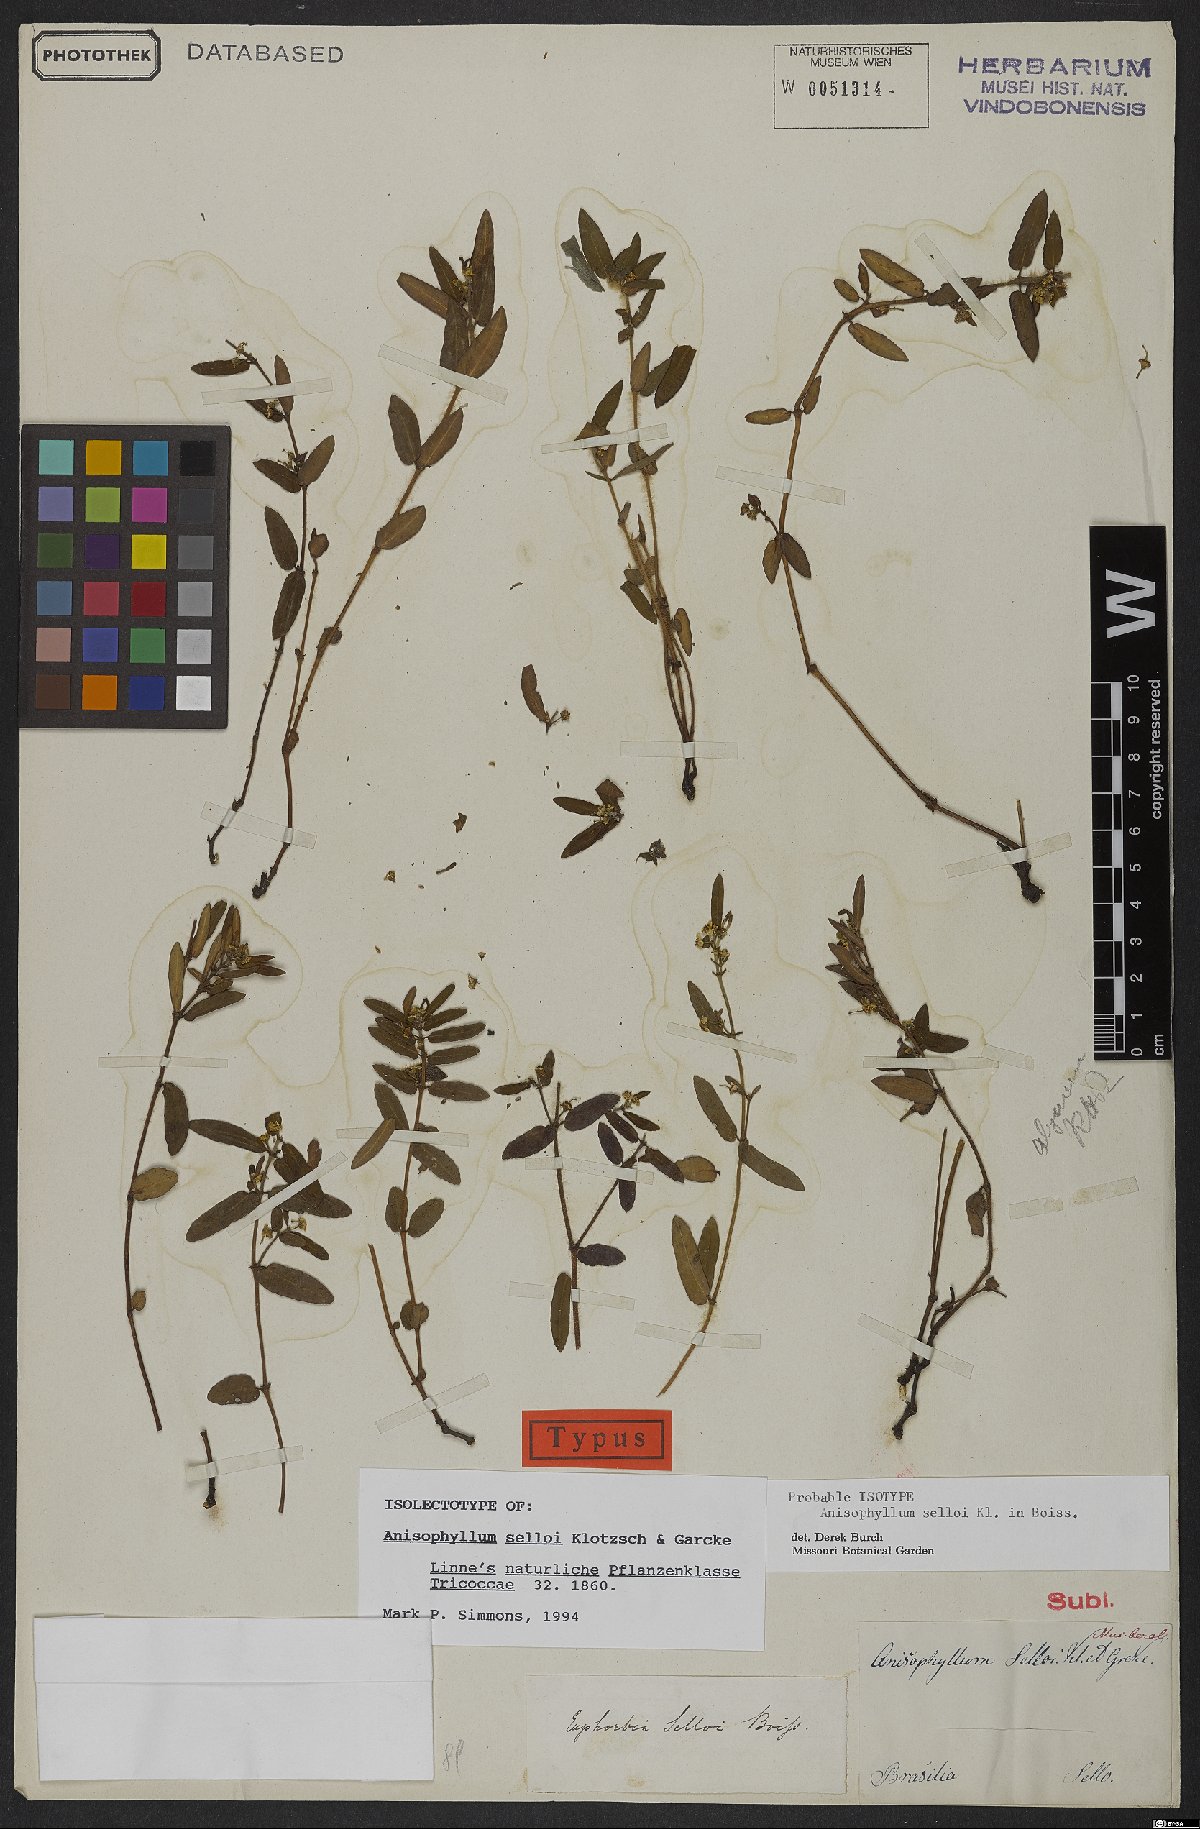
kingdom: Plantae
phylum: Tracheophyta
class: Magnoliopsida
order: Malpighiales
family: Euphorbiaceae
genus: Euphorbia
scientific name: Euphorbia selloi
